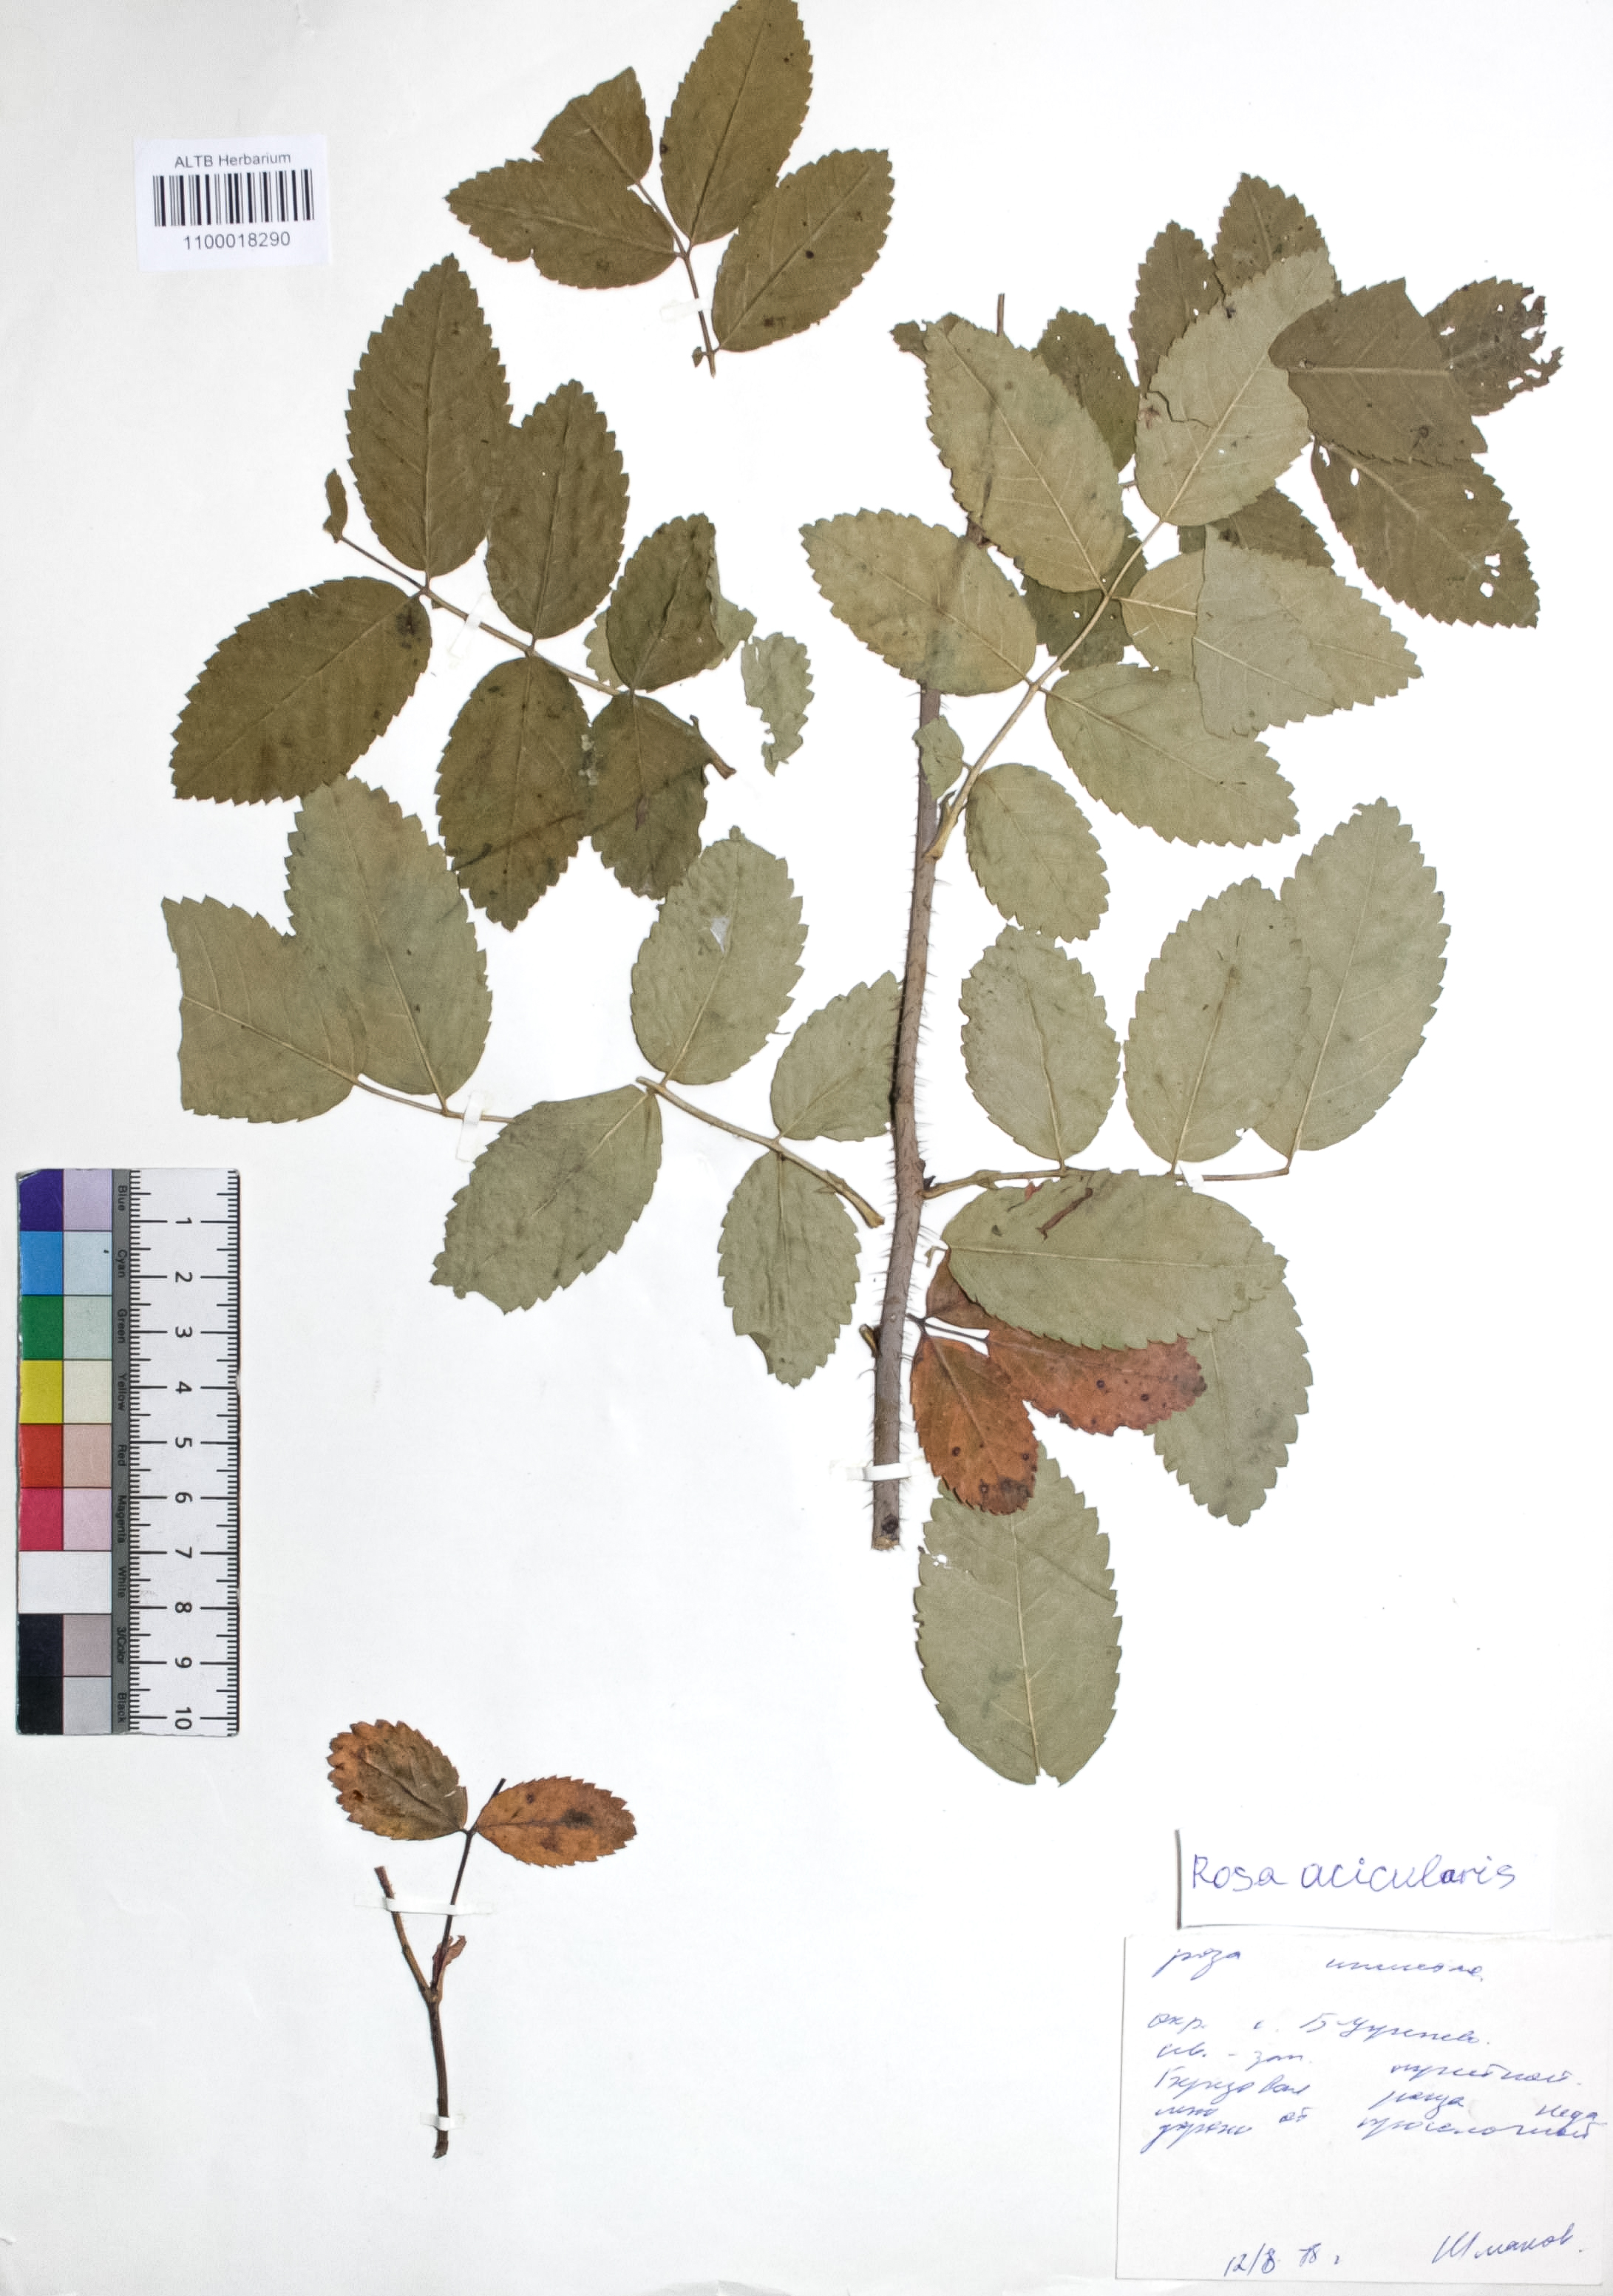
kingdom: Plantae
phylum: Tracheophyta
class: Magnoliopsida
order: Rosales
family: Rosaceae
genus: Rosa
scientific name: Rosa acicularis
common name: Prickly rose
